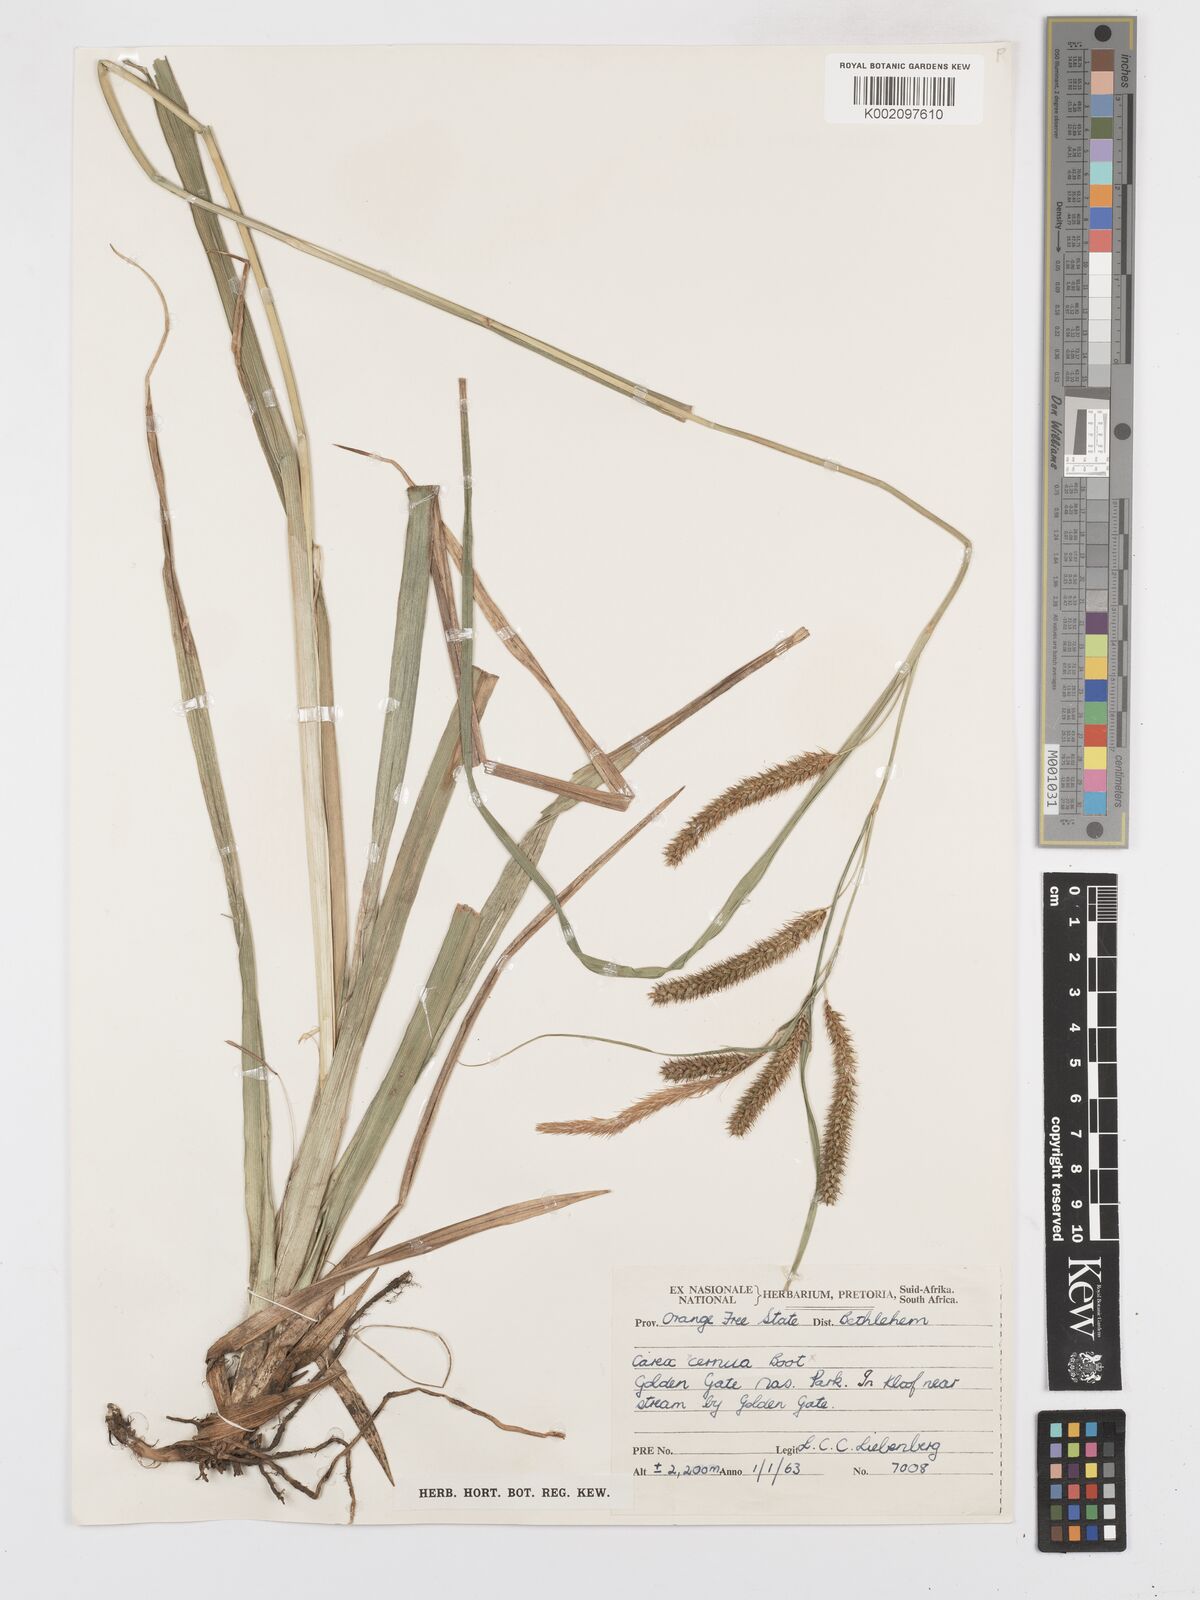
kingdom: Plantae
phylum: Tracheophyta
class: Liliopsida
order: Poales
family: Cyperaceae
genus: Carex
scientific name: Carex cognata
